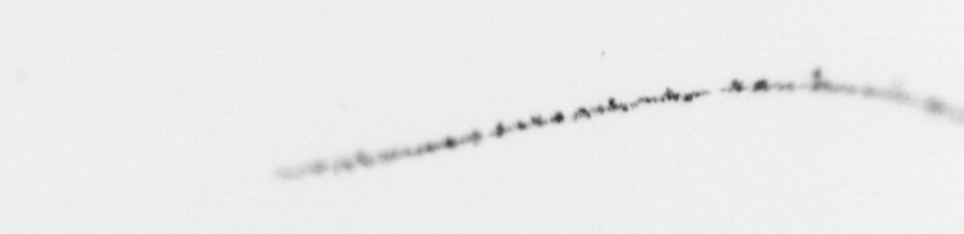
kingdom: Chromista
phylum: Ochrophyta
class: Bacillariophyceae
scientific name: Bacillariophyceae
